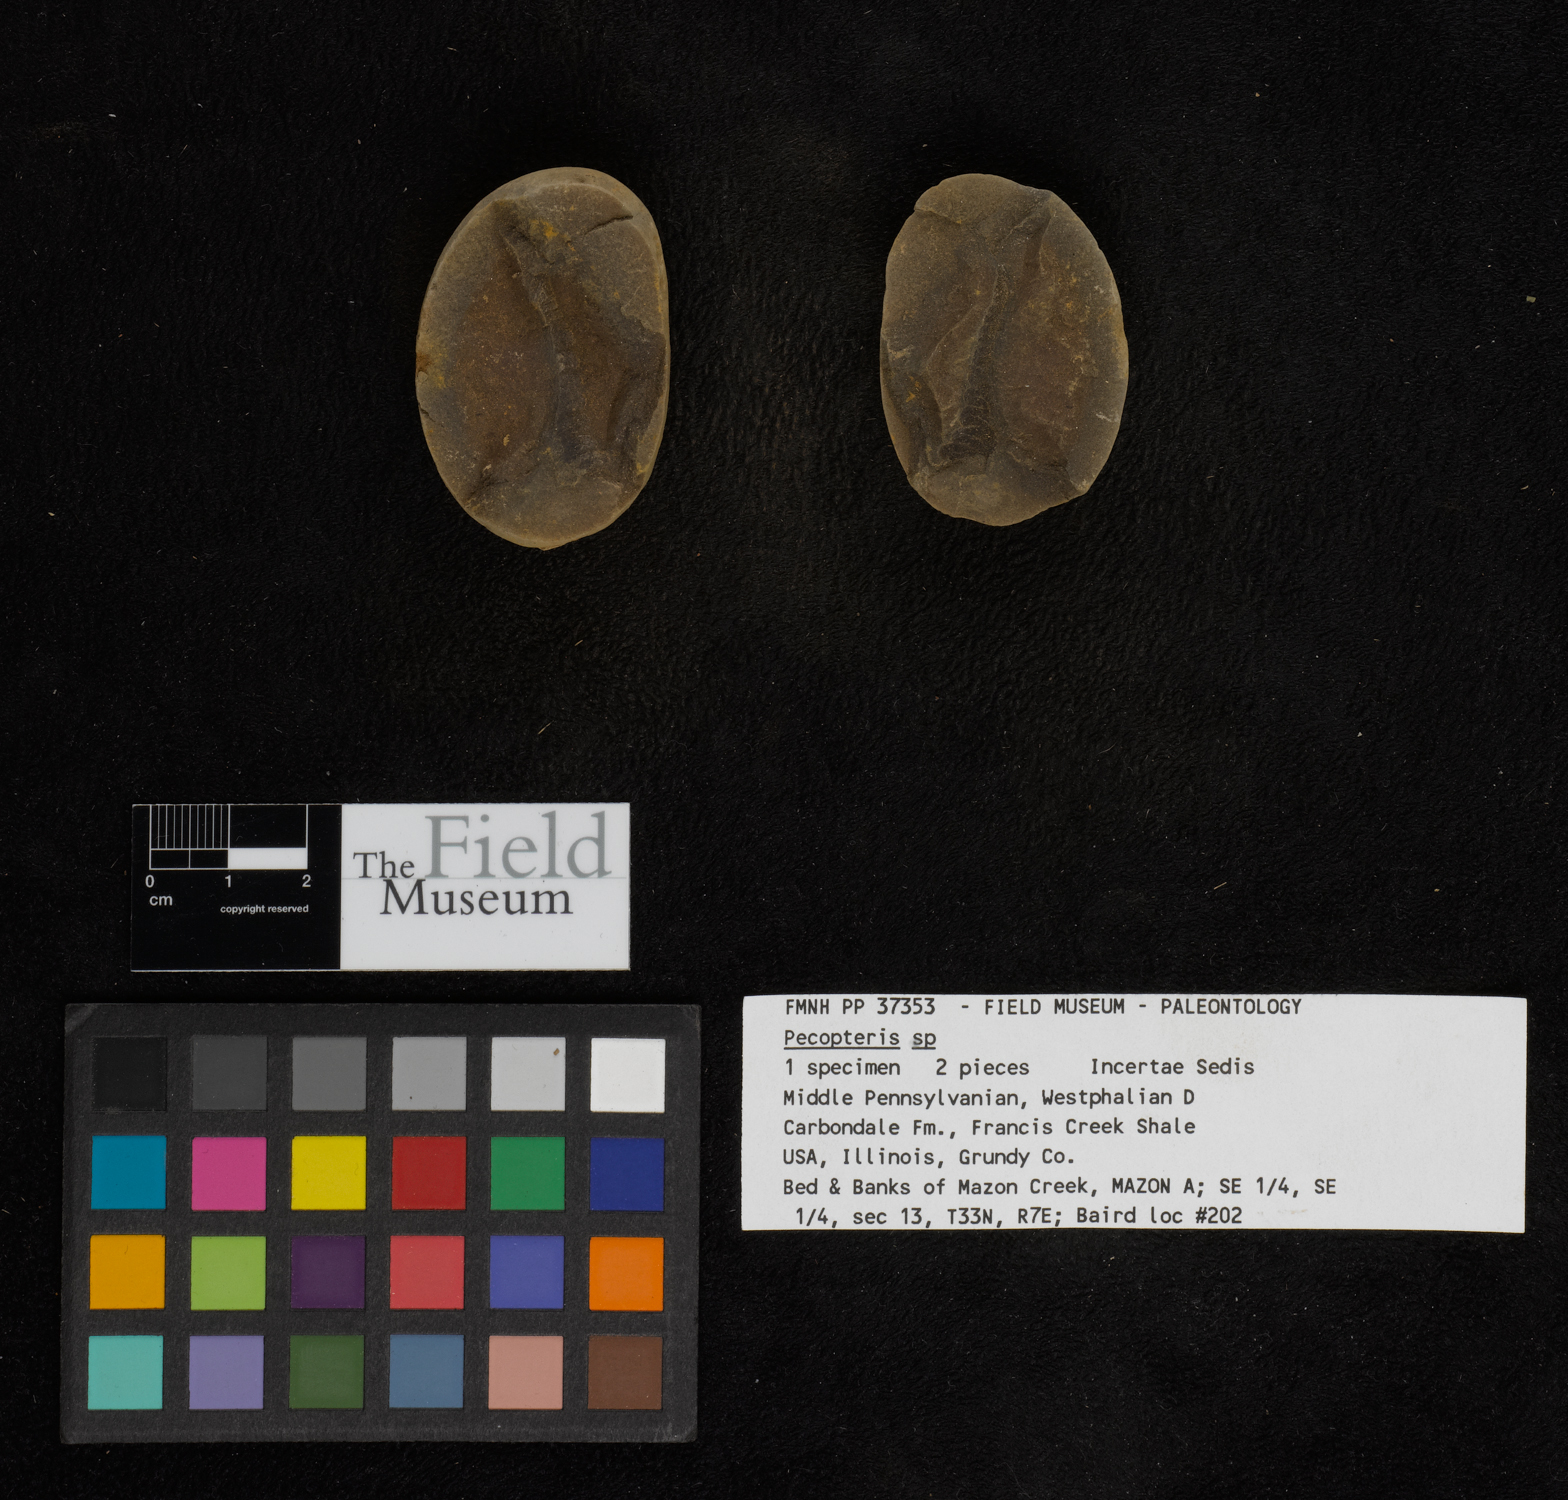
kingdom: Plantae
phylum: Tracheophyta
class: Polypodiopsida
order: Marattiales
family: Asterothecaceae
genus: Pecopteris
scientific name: Pecopteris
